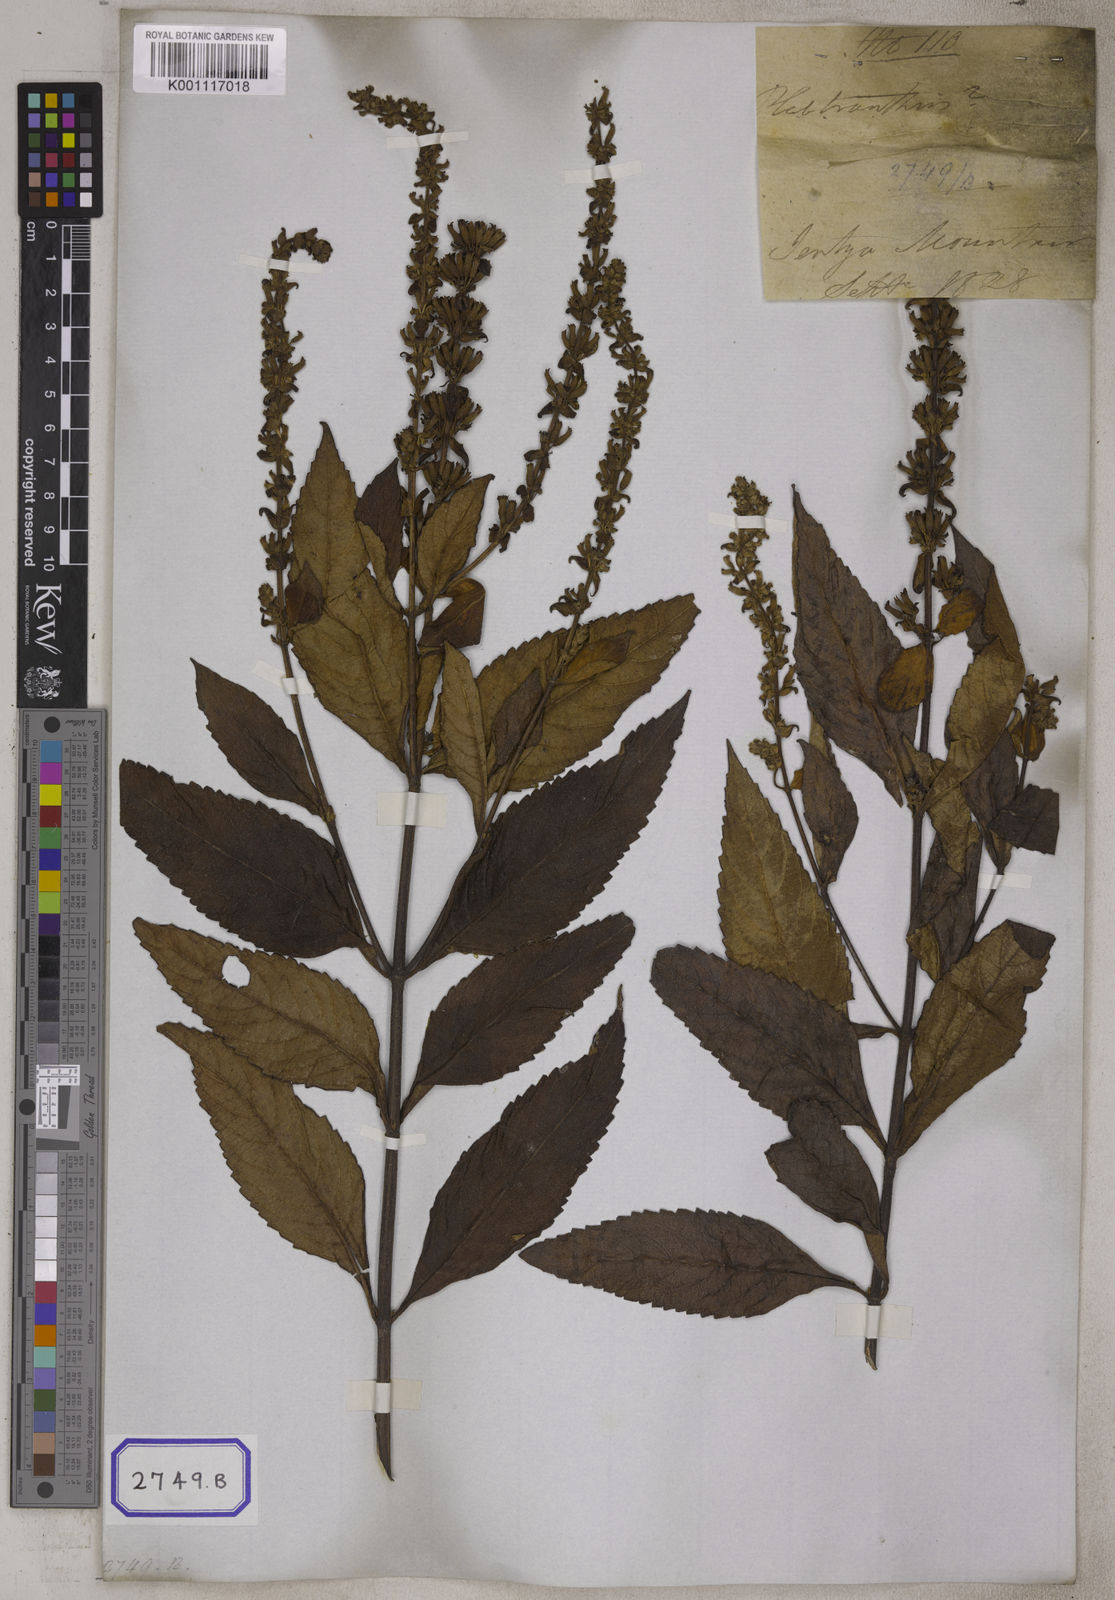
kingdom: Plantae
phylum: Tracheophyta
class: Magnoliopsida
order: Lamiales
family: Lamiaceae
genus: Platostoma
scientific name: Platostoma
